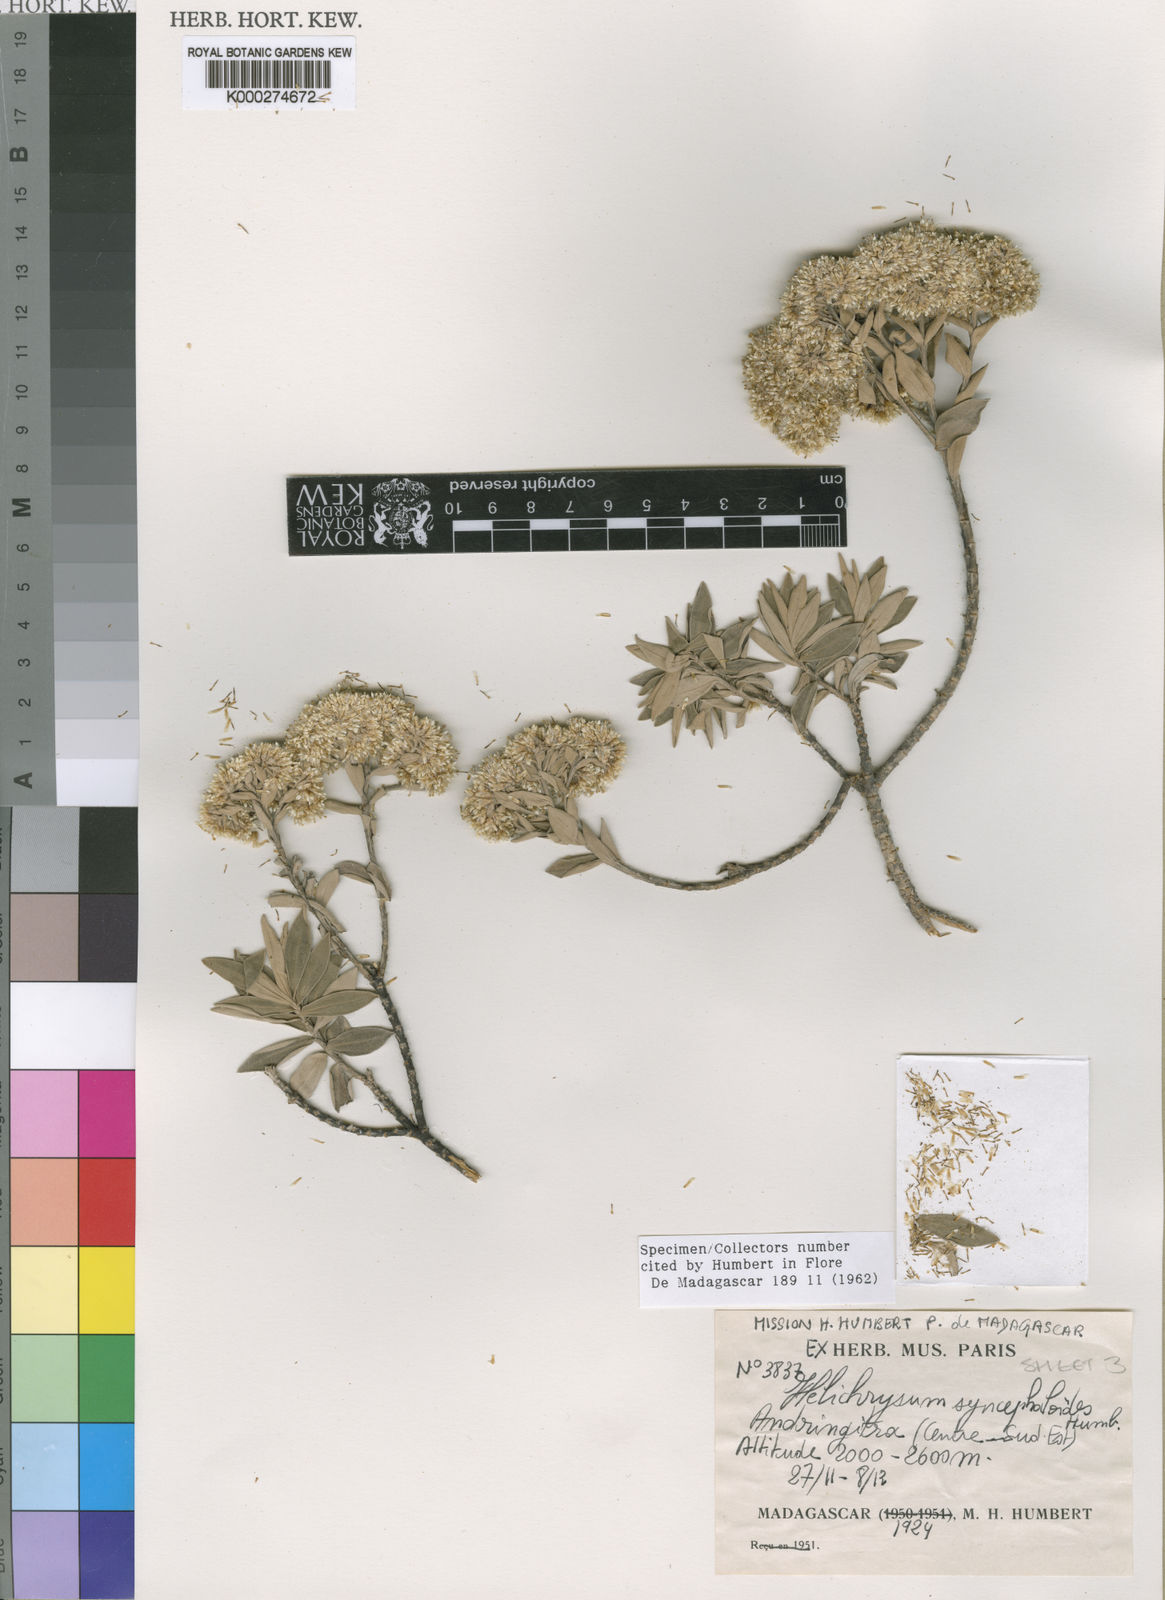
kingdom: Plantae
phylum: Tracheophyta
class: Magnoliopsida
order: Asterales
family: Asteraceae
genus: Helichrysum
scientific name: Helichrysum syncephaloides
